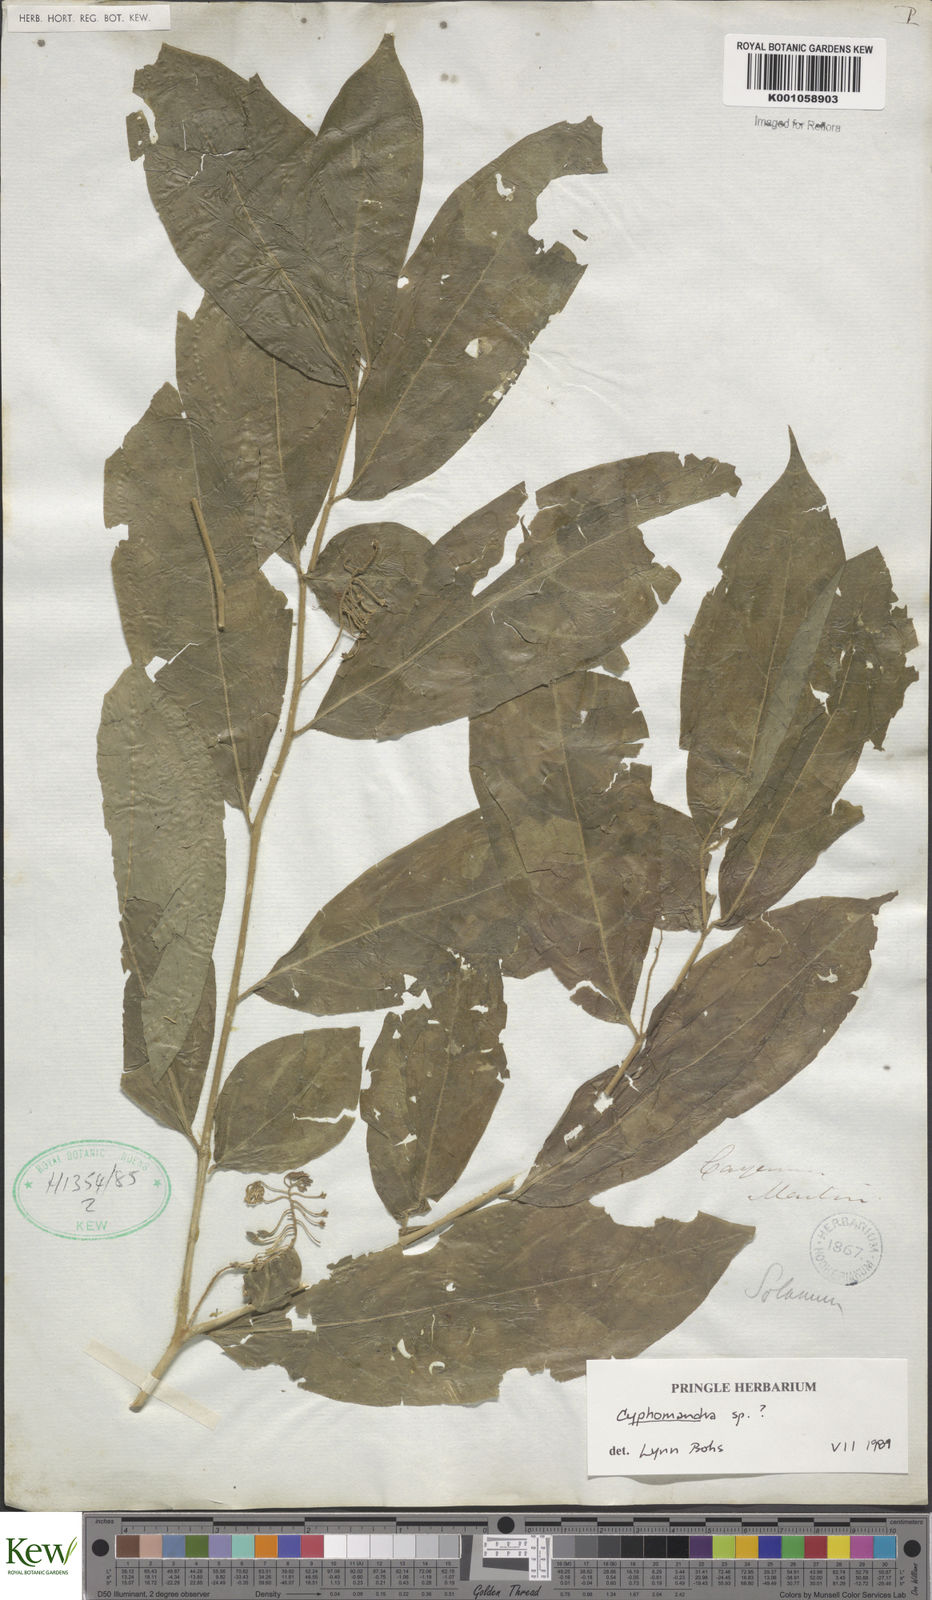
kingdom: Plantae
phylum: Tracheophyta
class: Magnoliopsida
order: Solanales
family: Solanaceae
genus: Solanum
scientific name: Solanum tegore
